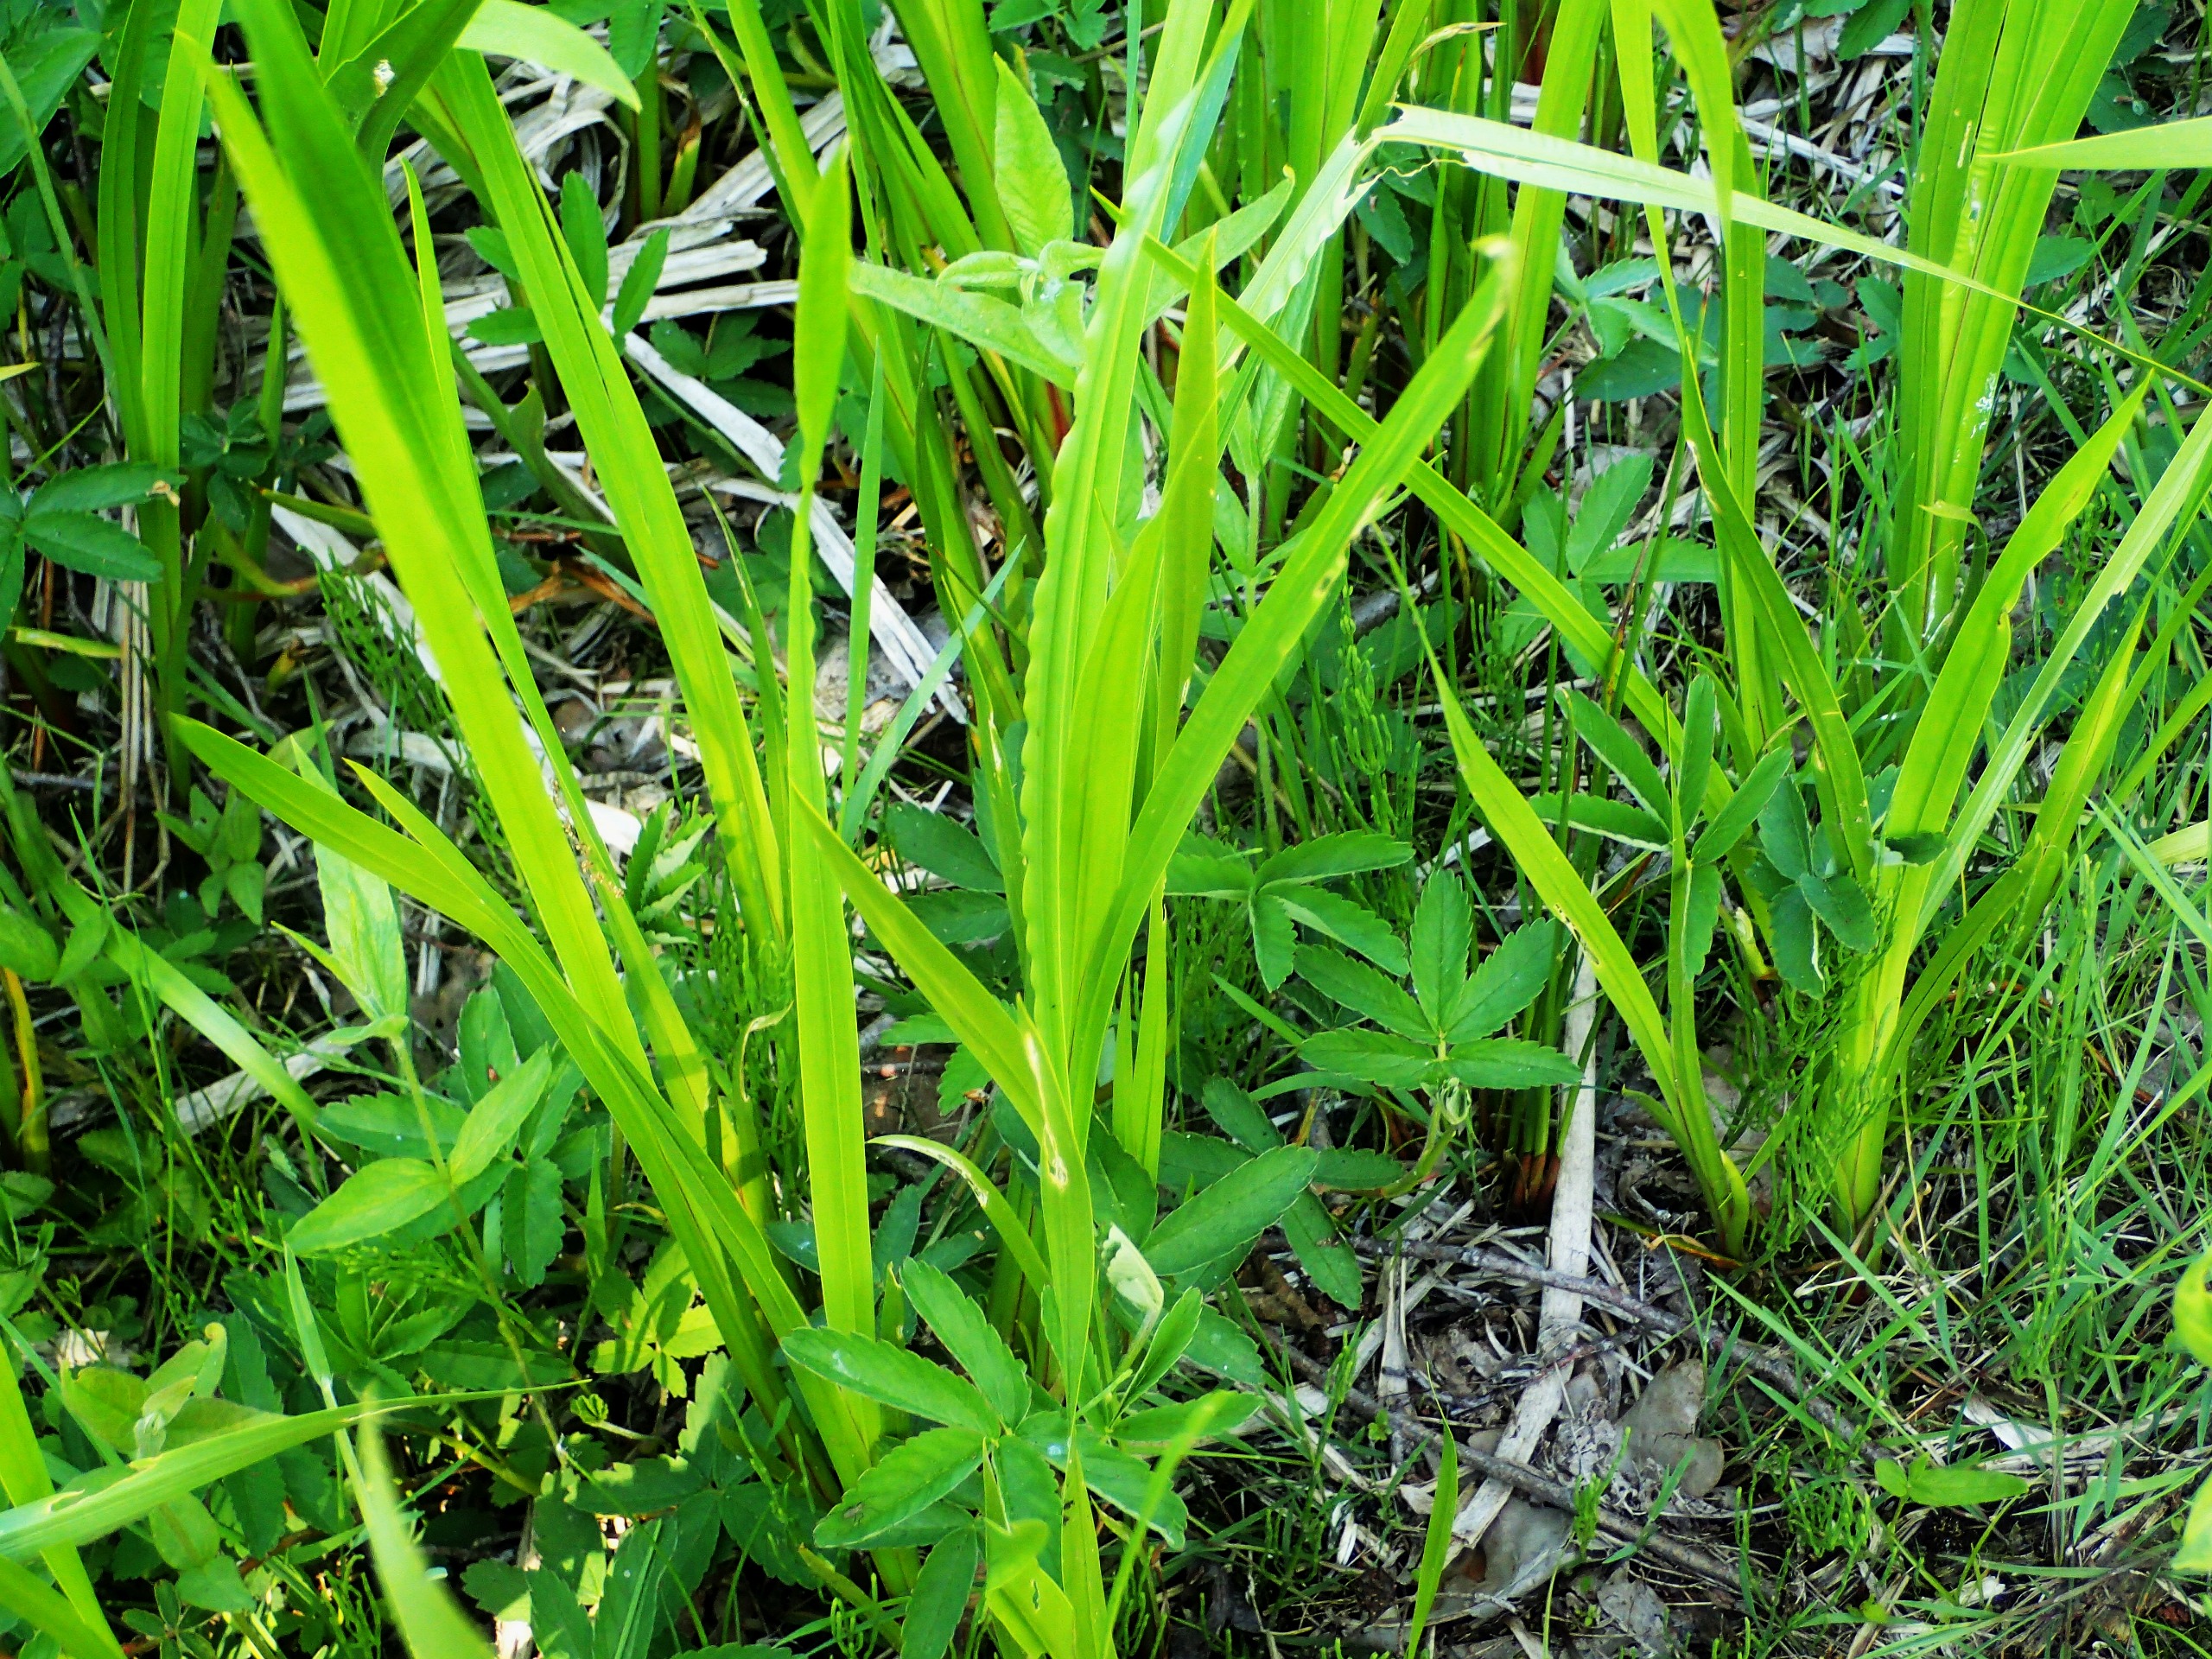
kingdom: Plantae
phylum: Tracheophyta
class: Liliopsida
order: Acorales
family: Acoraceae
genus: Acorus
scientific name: Acorus calamus
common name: Kalmus
